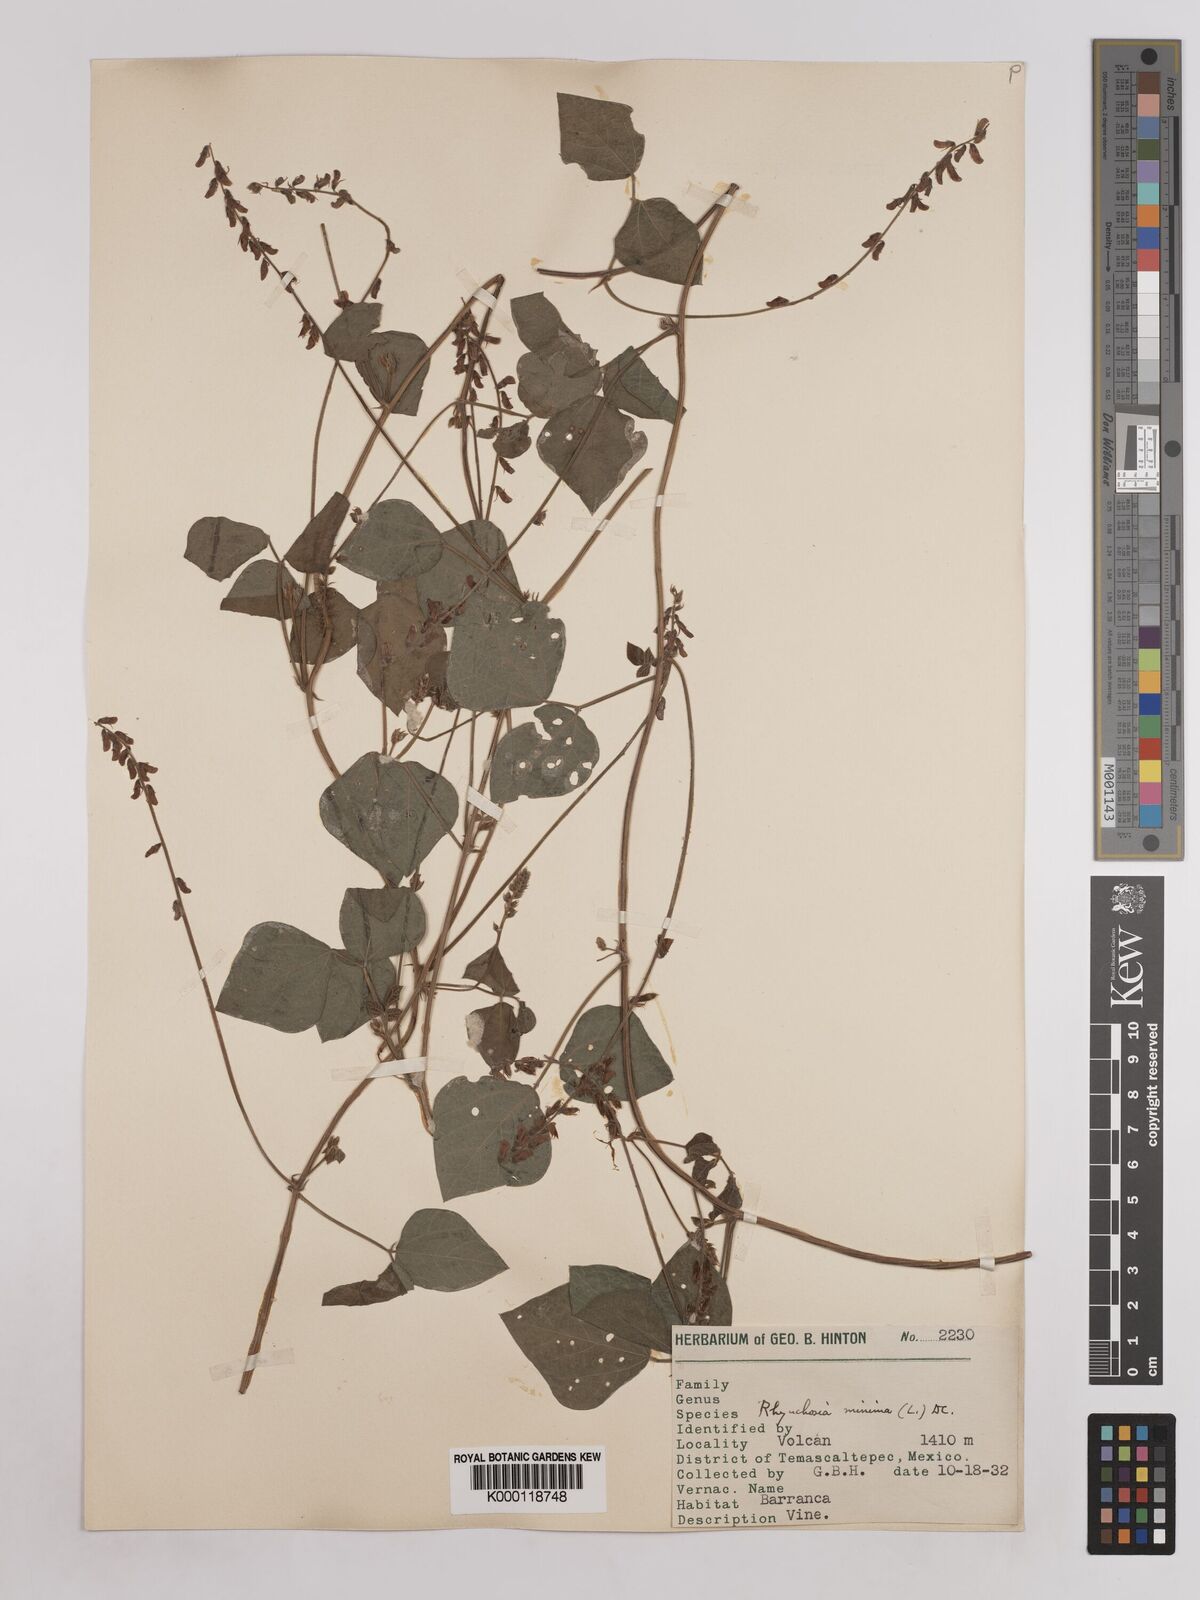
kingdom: Plantae
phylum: Tracheophyta
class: Magnoliopsida
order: Fabales
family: Fabaceae
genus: Rhynchosia
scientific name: Rhynchosia minima
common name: Least snoutbean
